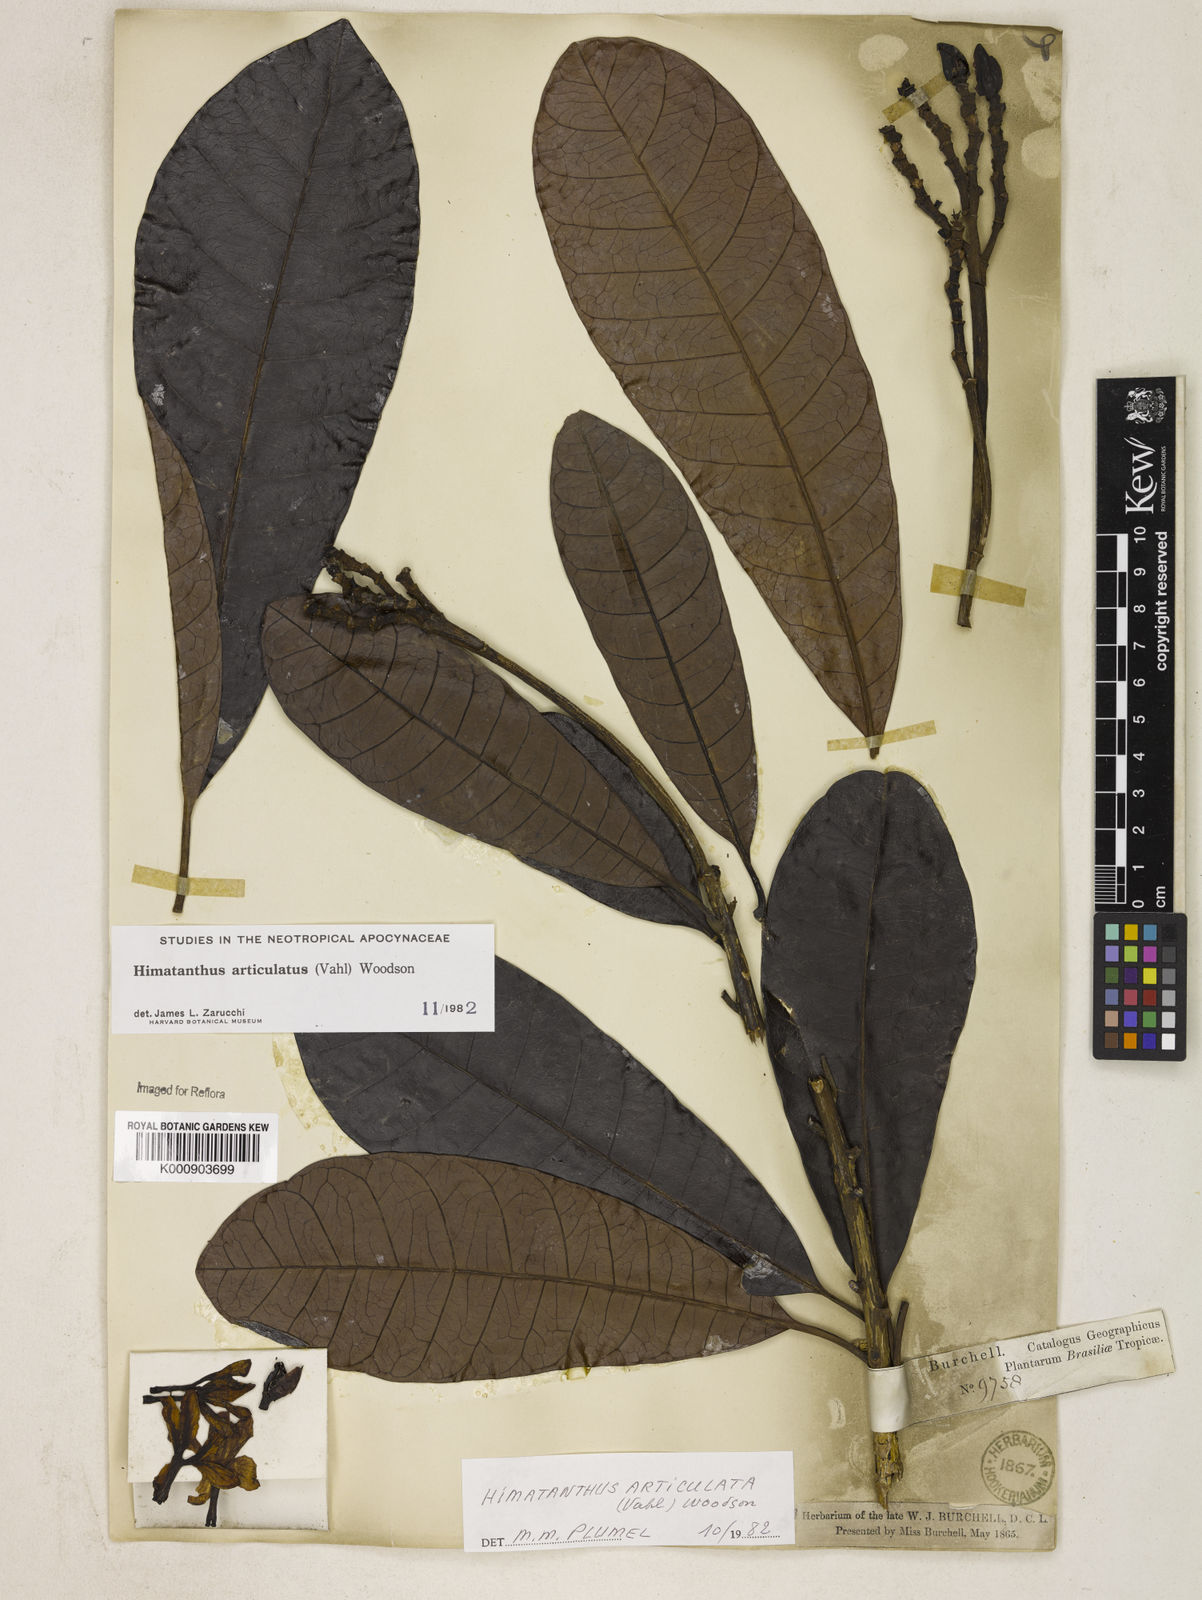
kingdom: Plantae
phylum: Tracheophyta
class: Magnoliopsida
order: Gentianales
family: Apocynaceae
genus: Himatanthus
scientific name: Himatanthus articulatus
